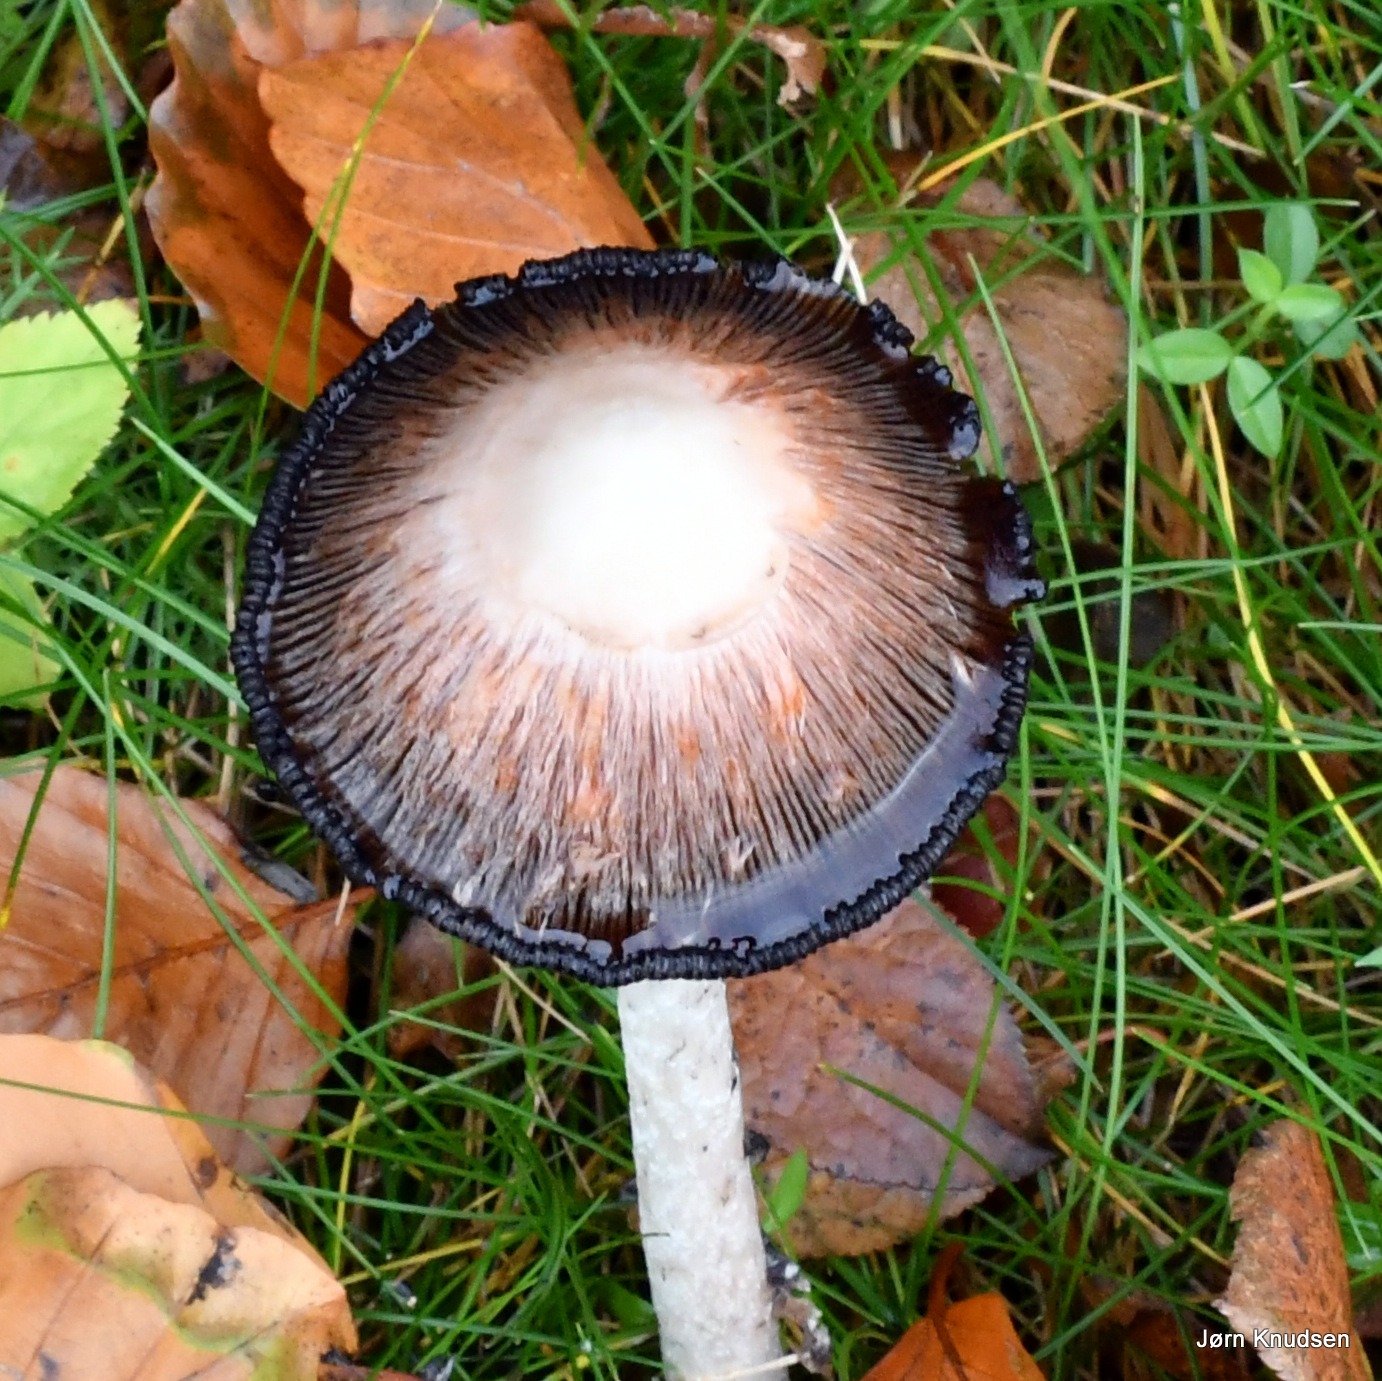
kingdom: Fungi
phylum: Basidiomycota
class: Agaricomycetes
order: Agaricales
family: Agaricaceae
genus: Coprinus
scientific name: Coprinus comatus
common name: Stor parykhat
